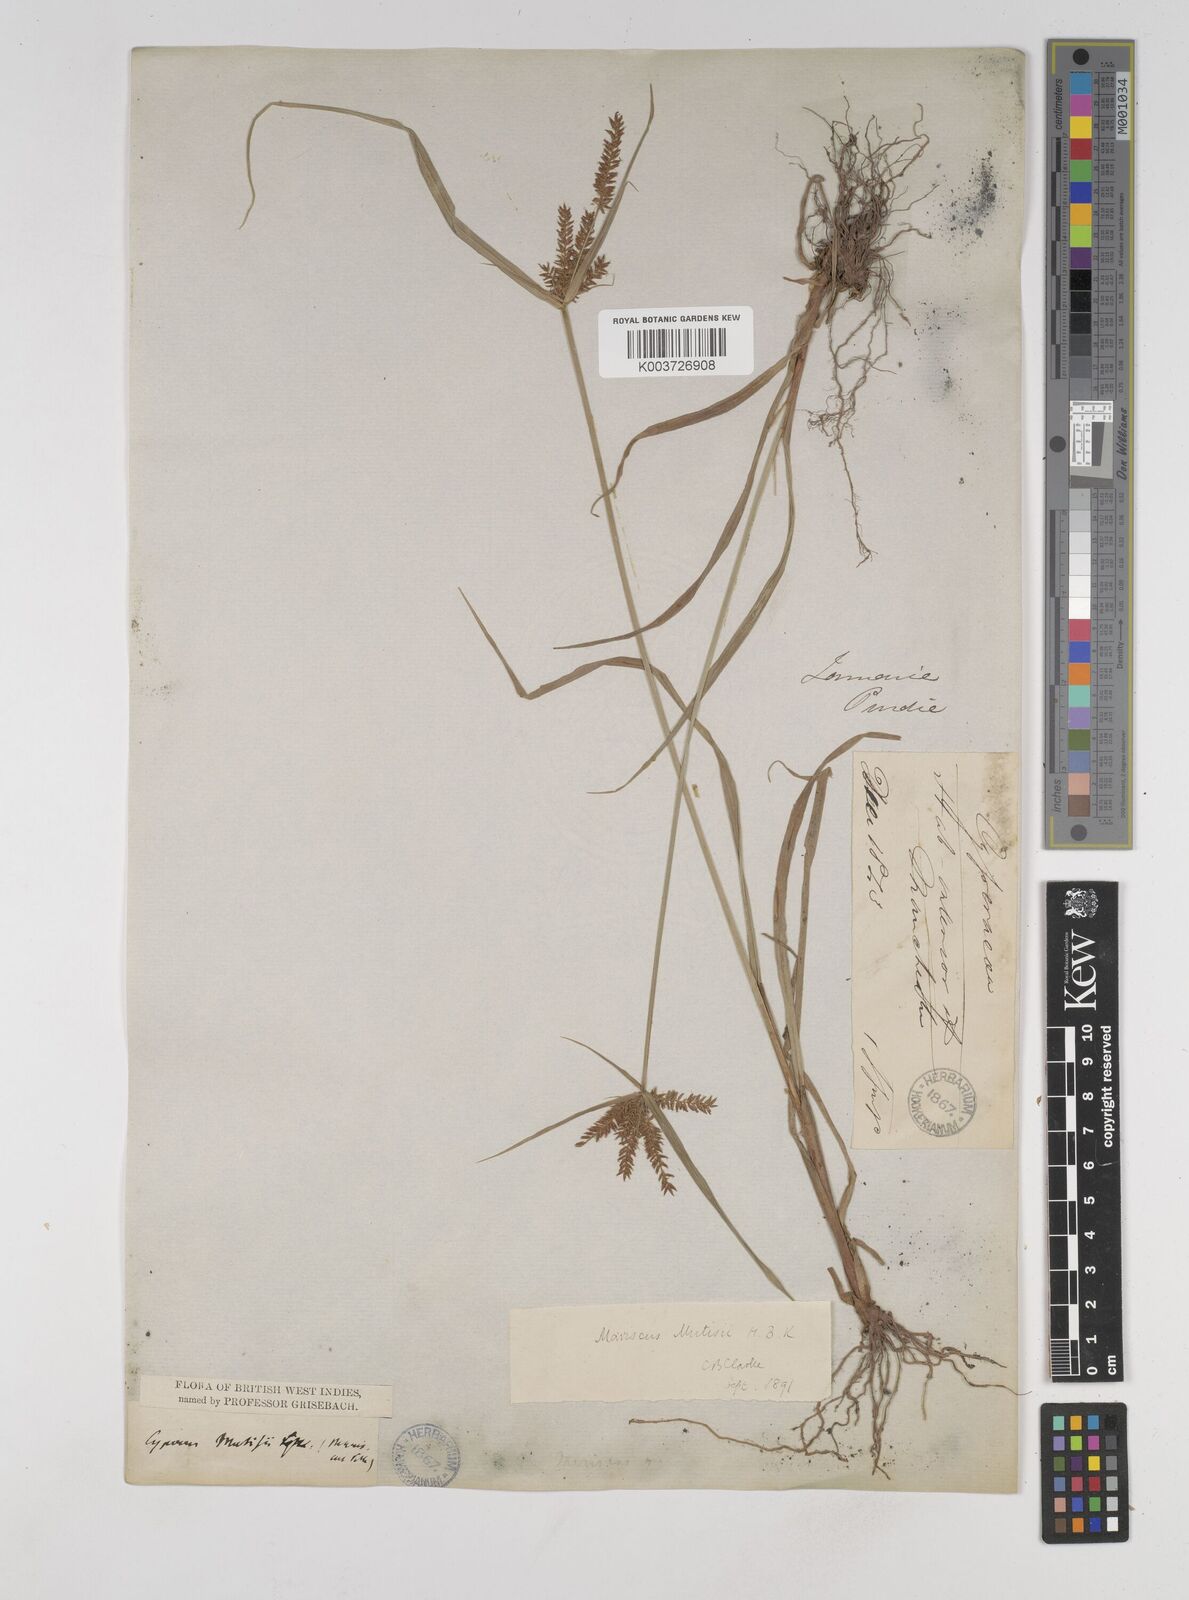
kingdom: Plantae
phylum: Tracheophyta
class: Liliopsida
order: Poales
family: Cyperaceae
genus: Cyperus
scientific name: Cyperus
